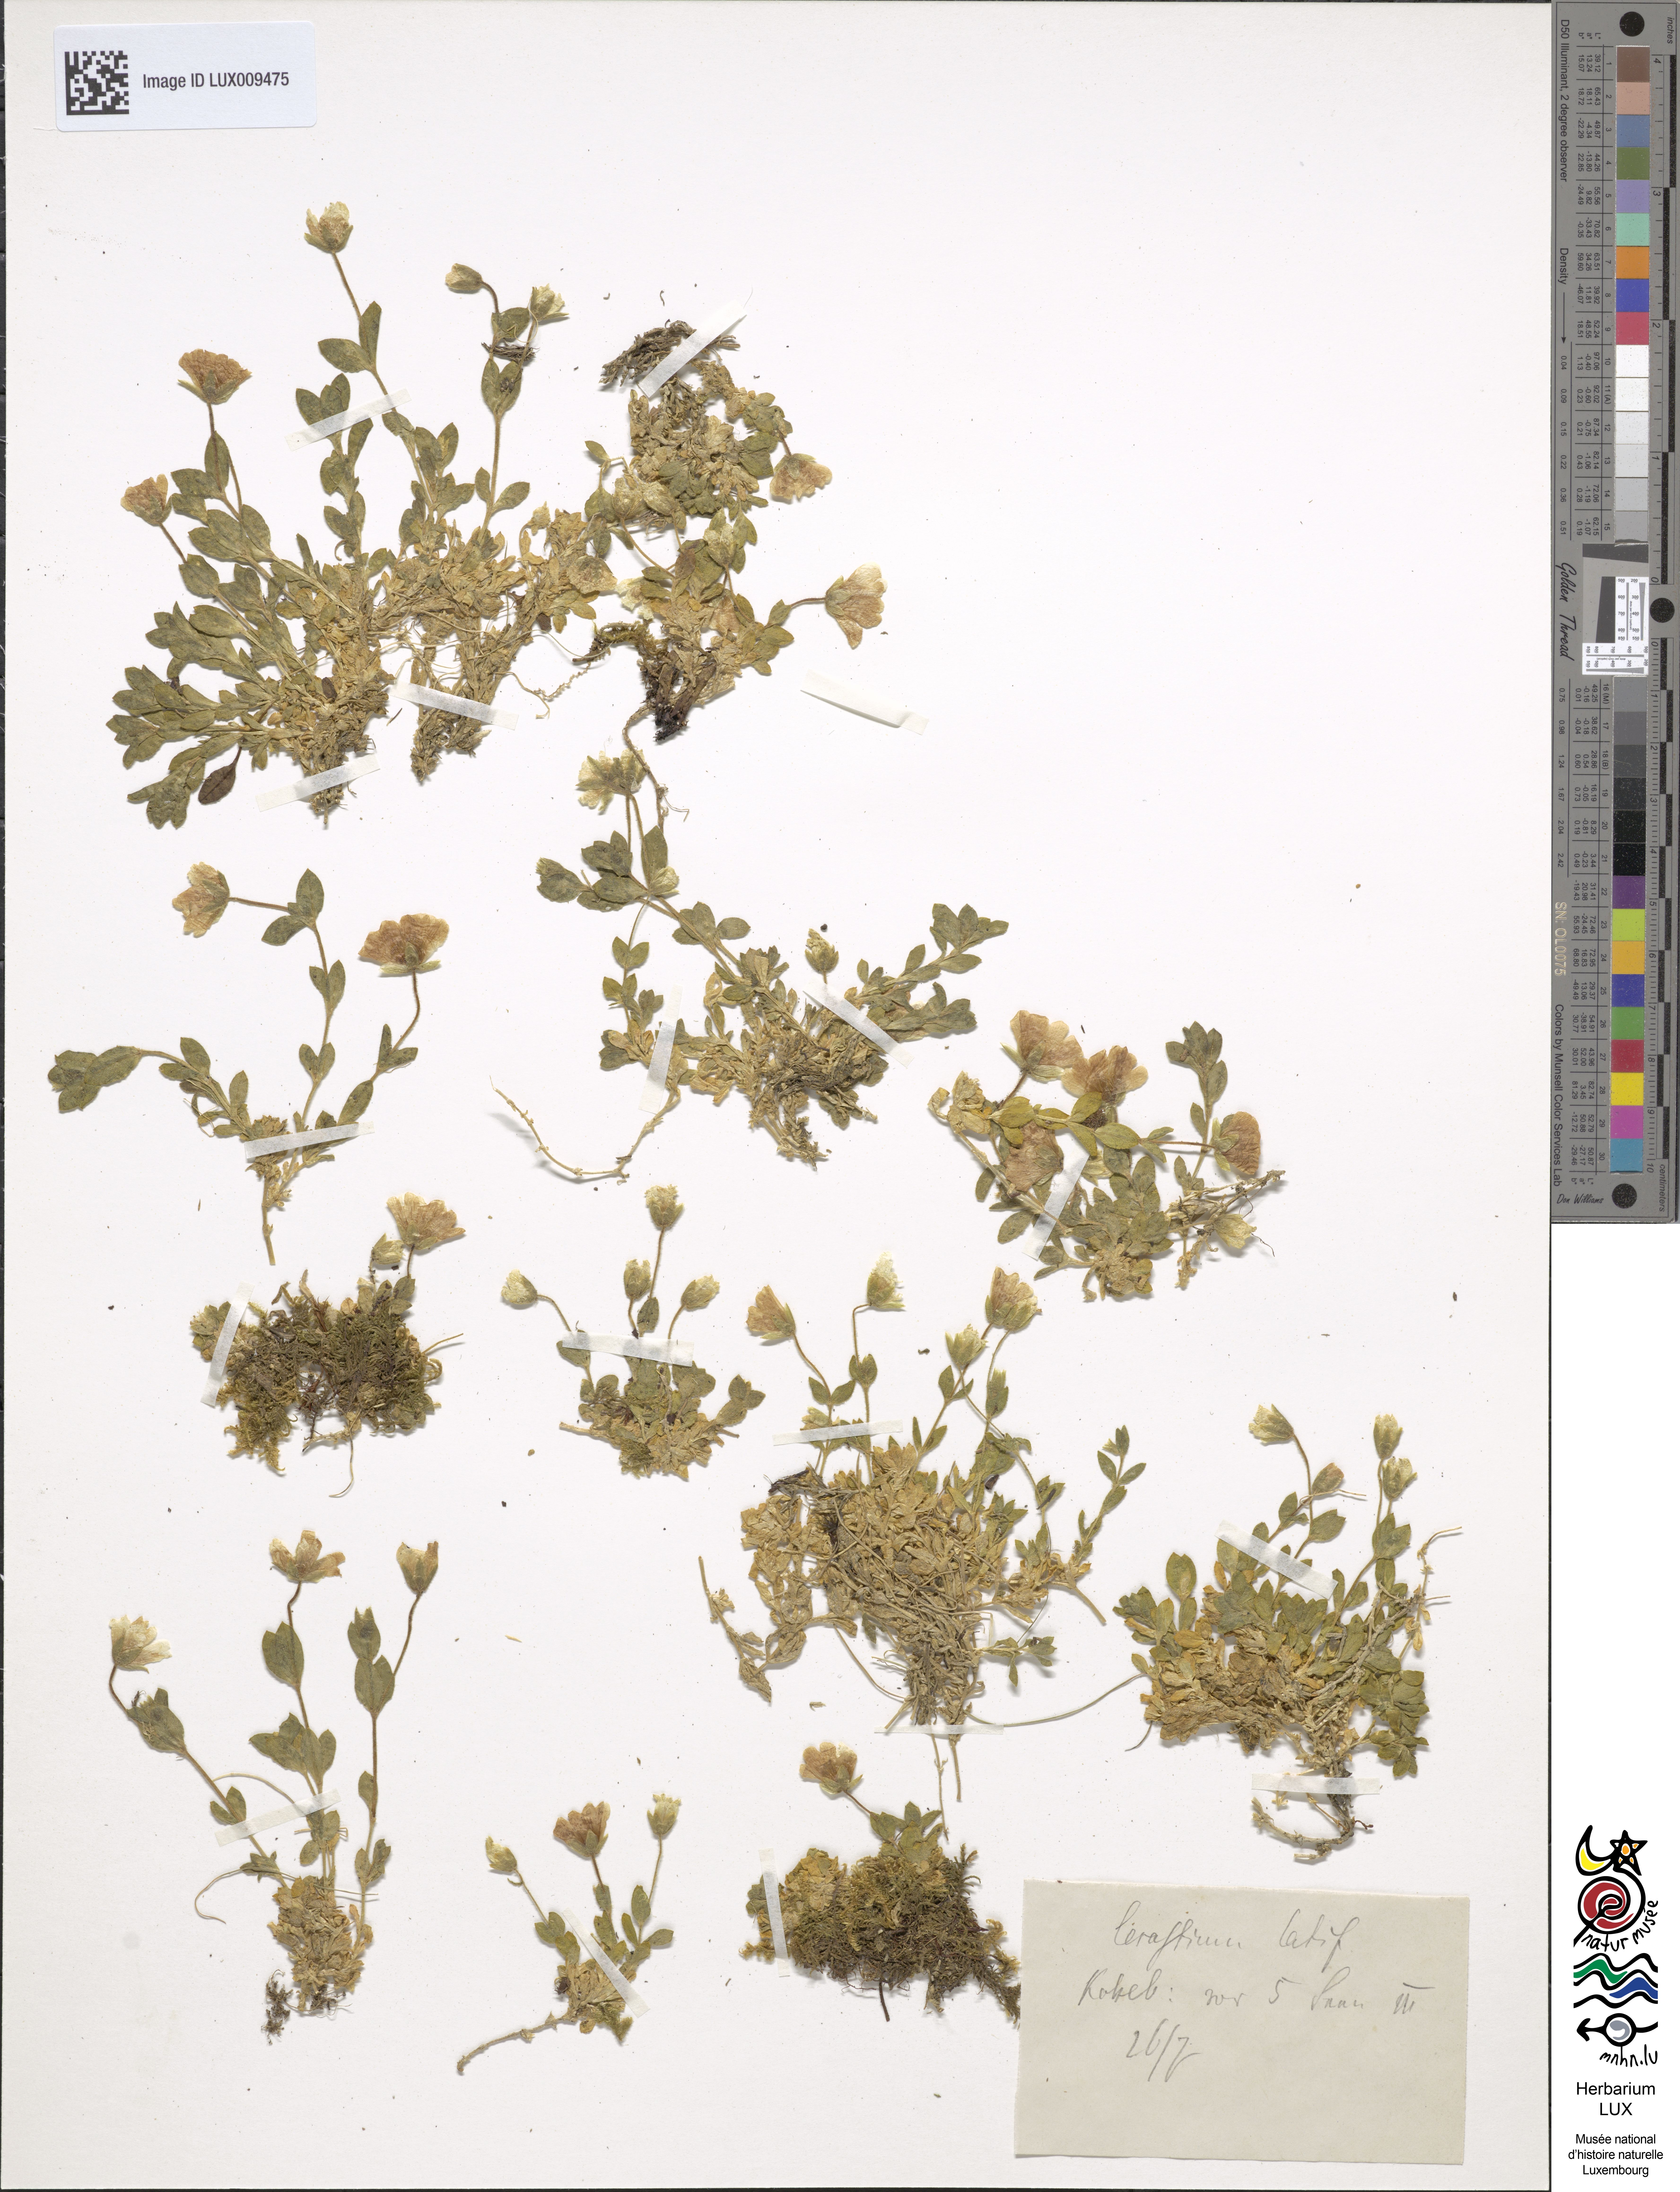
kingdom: Plantae
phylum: Tracheophyta
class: Magnoliopsida
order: Caryophyllales
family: Caryophyllaceae
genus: Cerastium
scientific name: Cerastium latifolium
